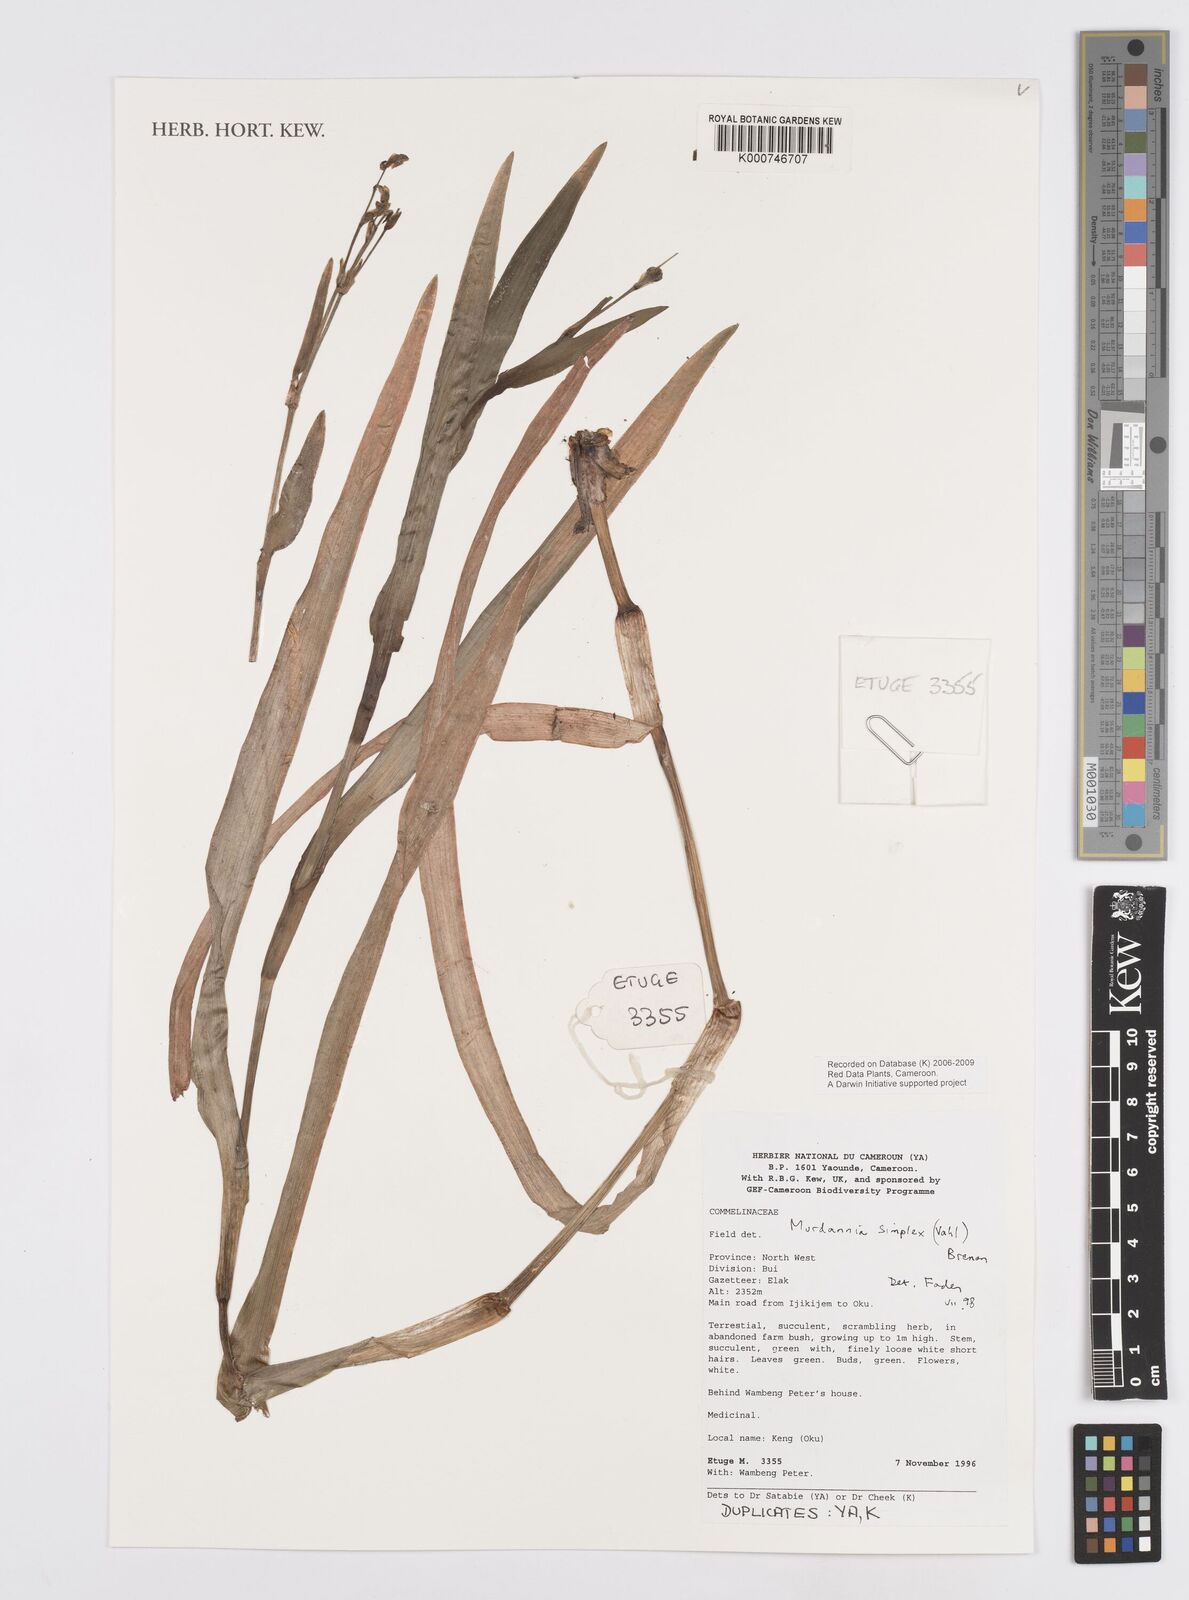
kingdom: Plantae
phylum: Tracheophyta
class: Liliopsida
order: Commelinales
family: Commelinaceae
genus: Murdannia
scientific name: Murdannia simplex
